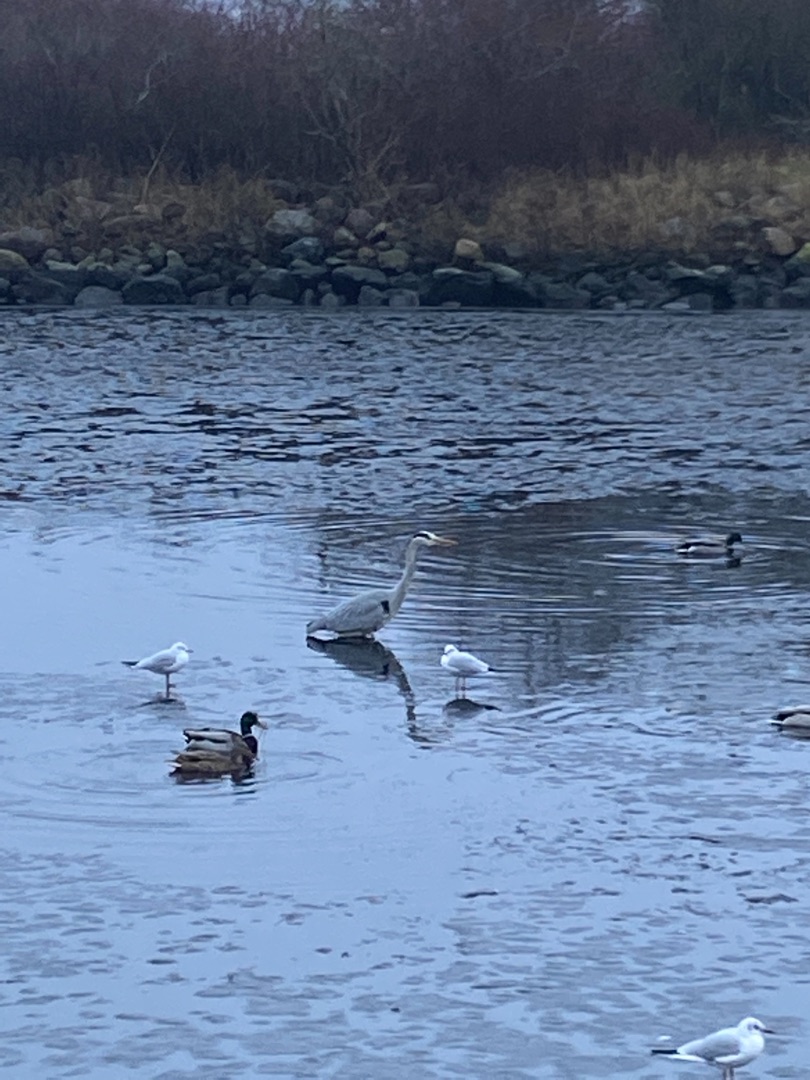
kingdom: Animalia
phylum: Chordata
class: Aves
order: Pelecaniformes
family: Ardeidae
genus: Ardea
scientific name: Ardea cinerea
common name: Fiskehejre
